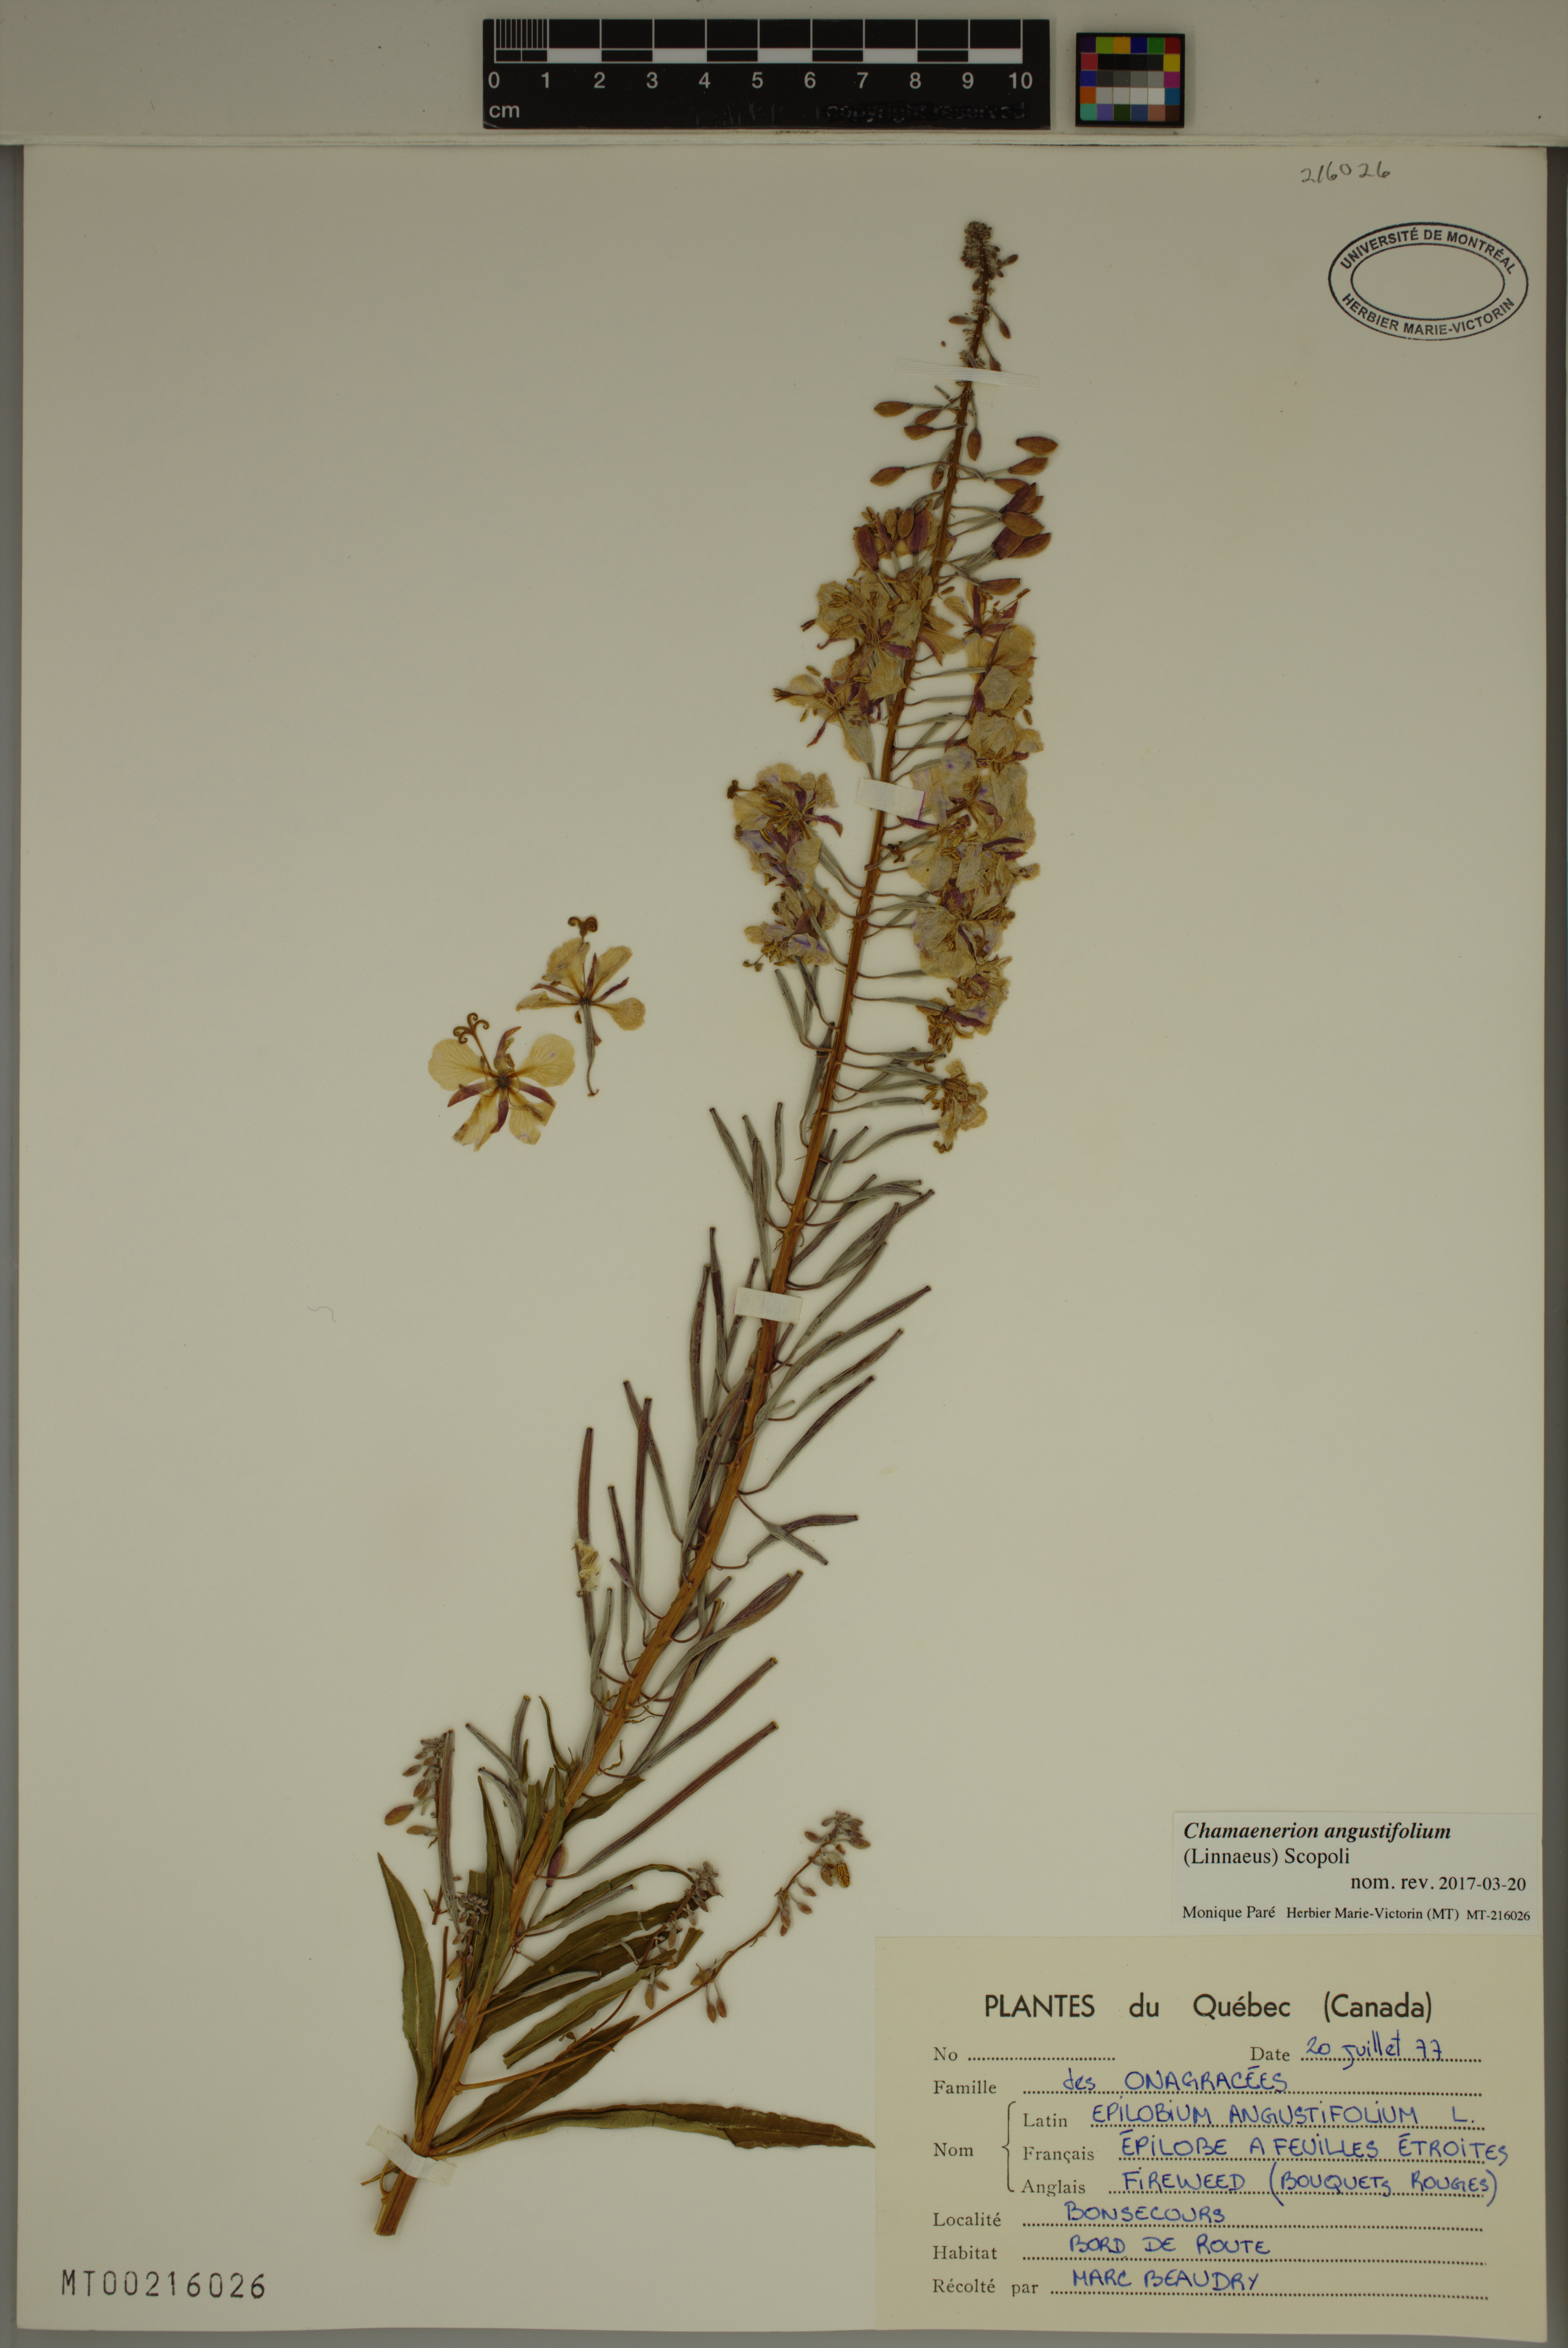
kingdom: Plantae
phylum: Tracheophyta
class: Magnoliopsida
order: Myrtales
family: Onagraceae
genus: Chamaenerion
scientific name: Chamaenerion angustifolium
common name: Fireweed
